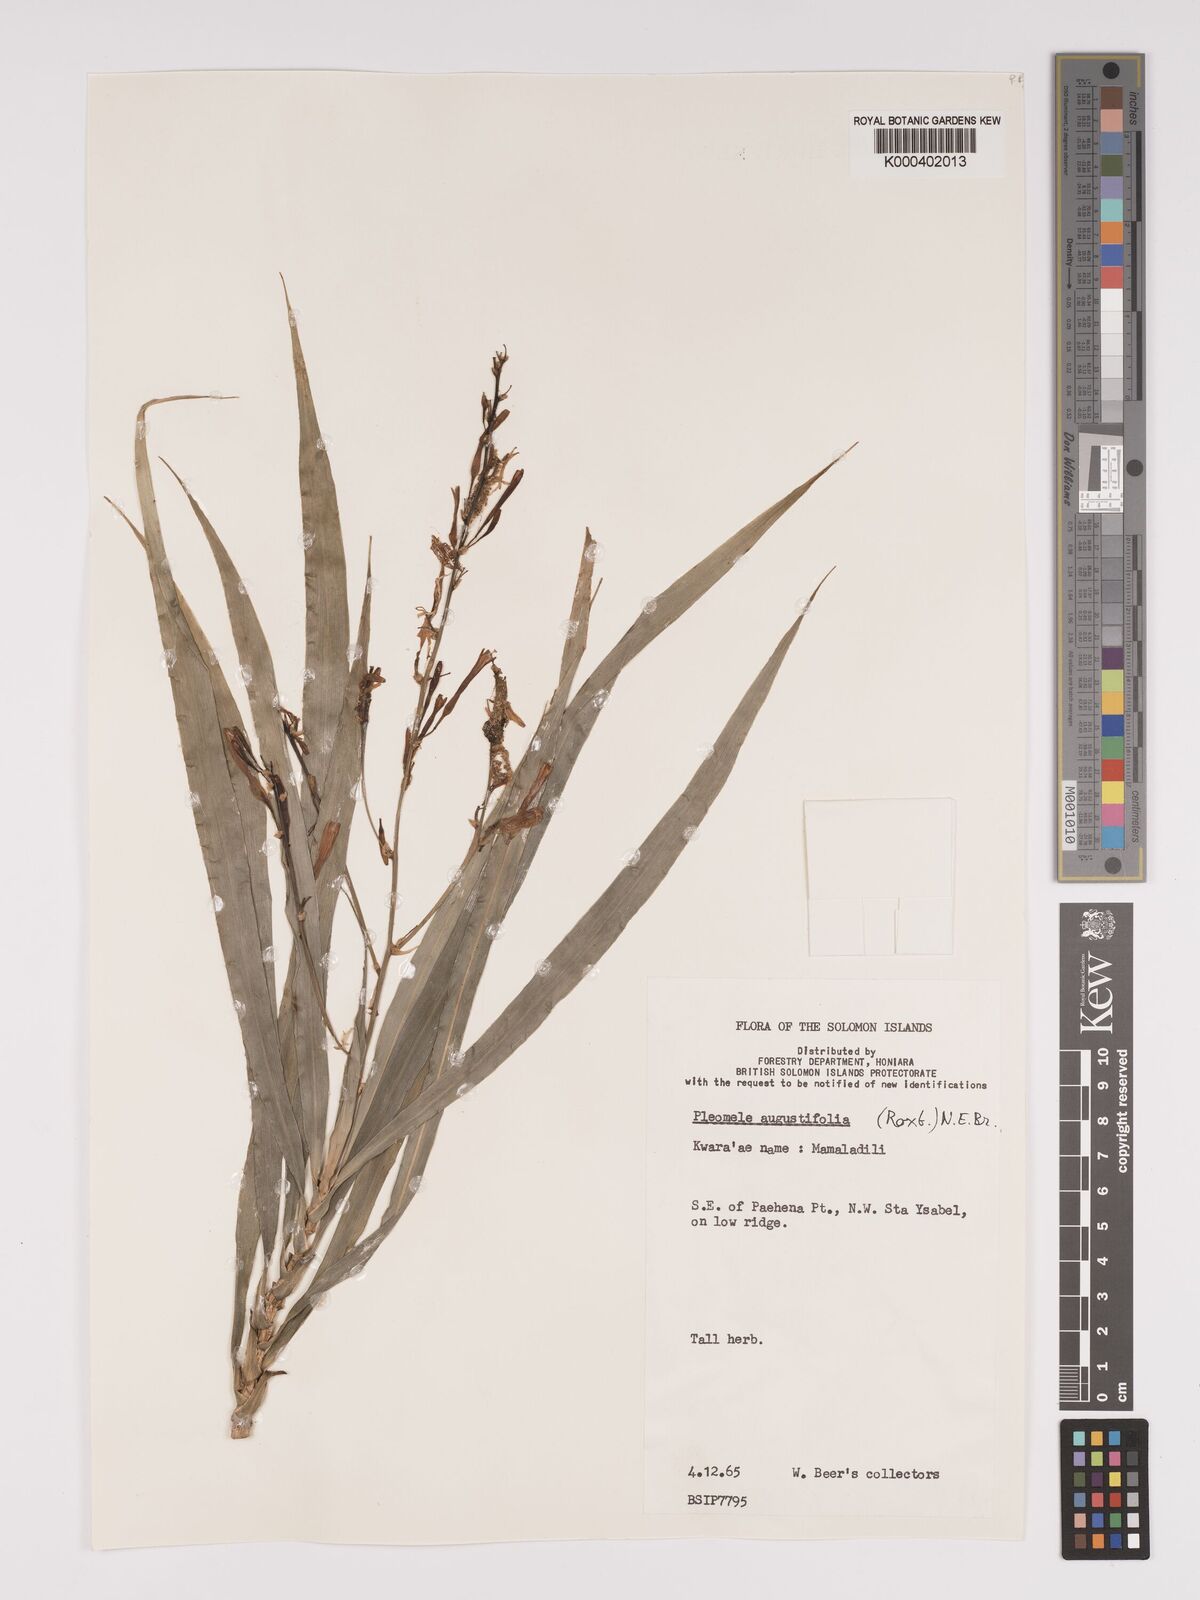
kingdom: Plantae
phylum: Tracheophyta
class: Liliopsida
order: Asparagales
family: Asparagaceae
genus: Dracaena
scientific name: Dracaena angustifolia
